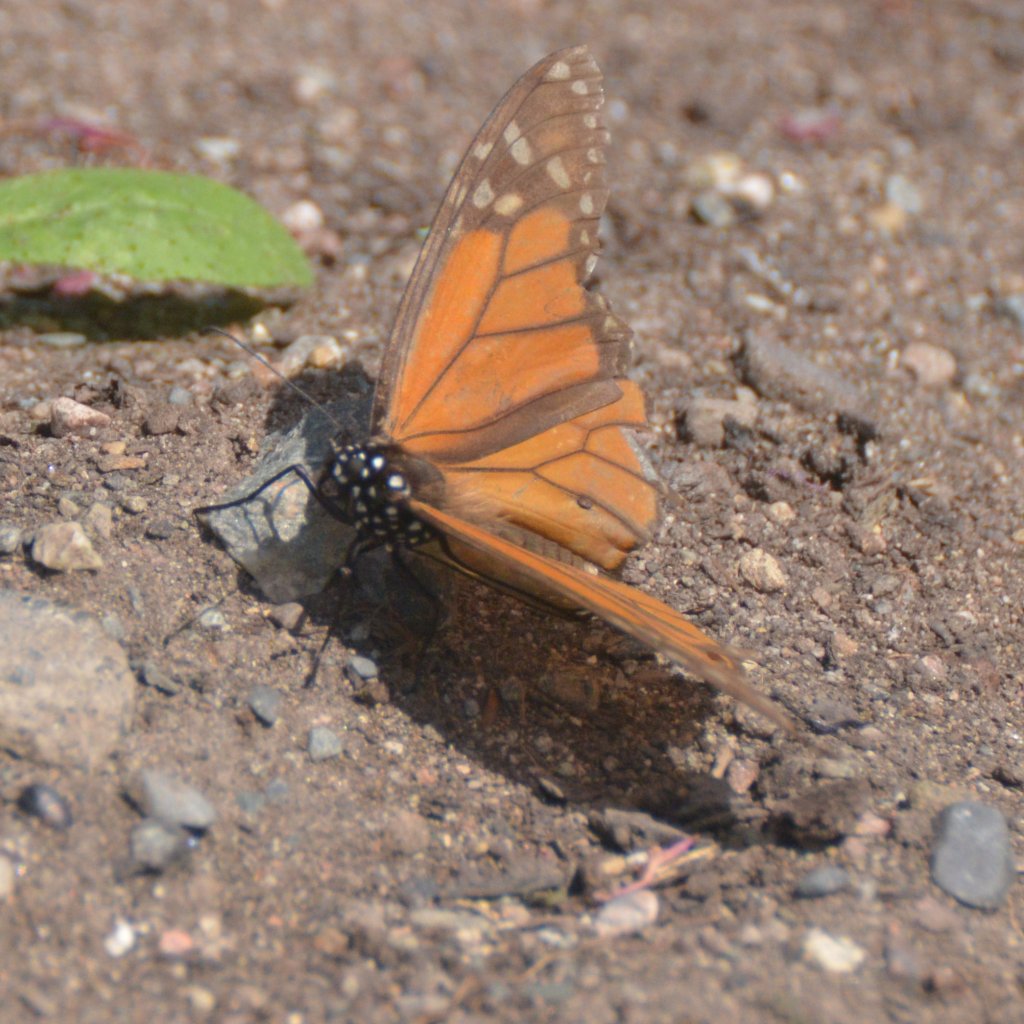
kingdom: Animalia
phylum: Arthropoda
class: Insecta
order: Lepidoptera
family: Nymphalidae
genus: Danaus
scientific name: Danaus plexippus
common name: Monarch
